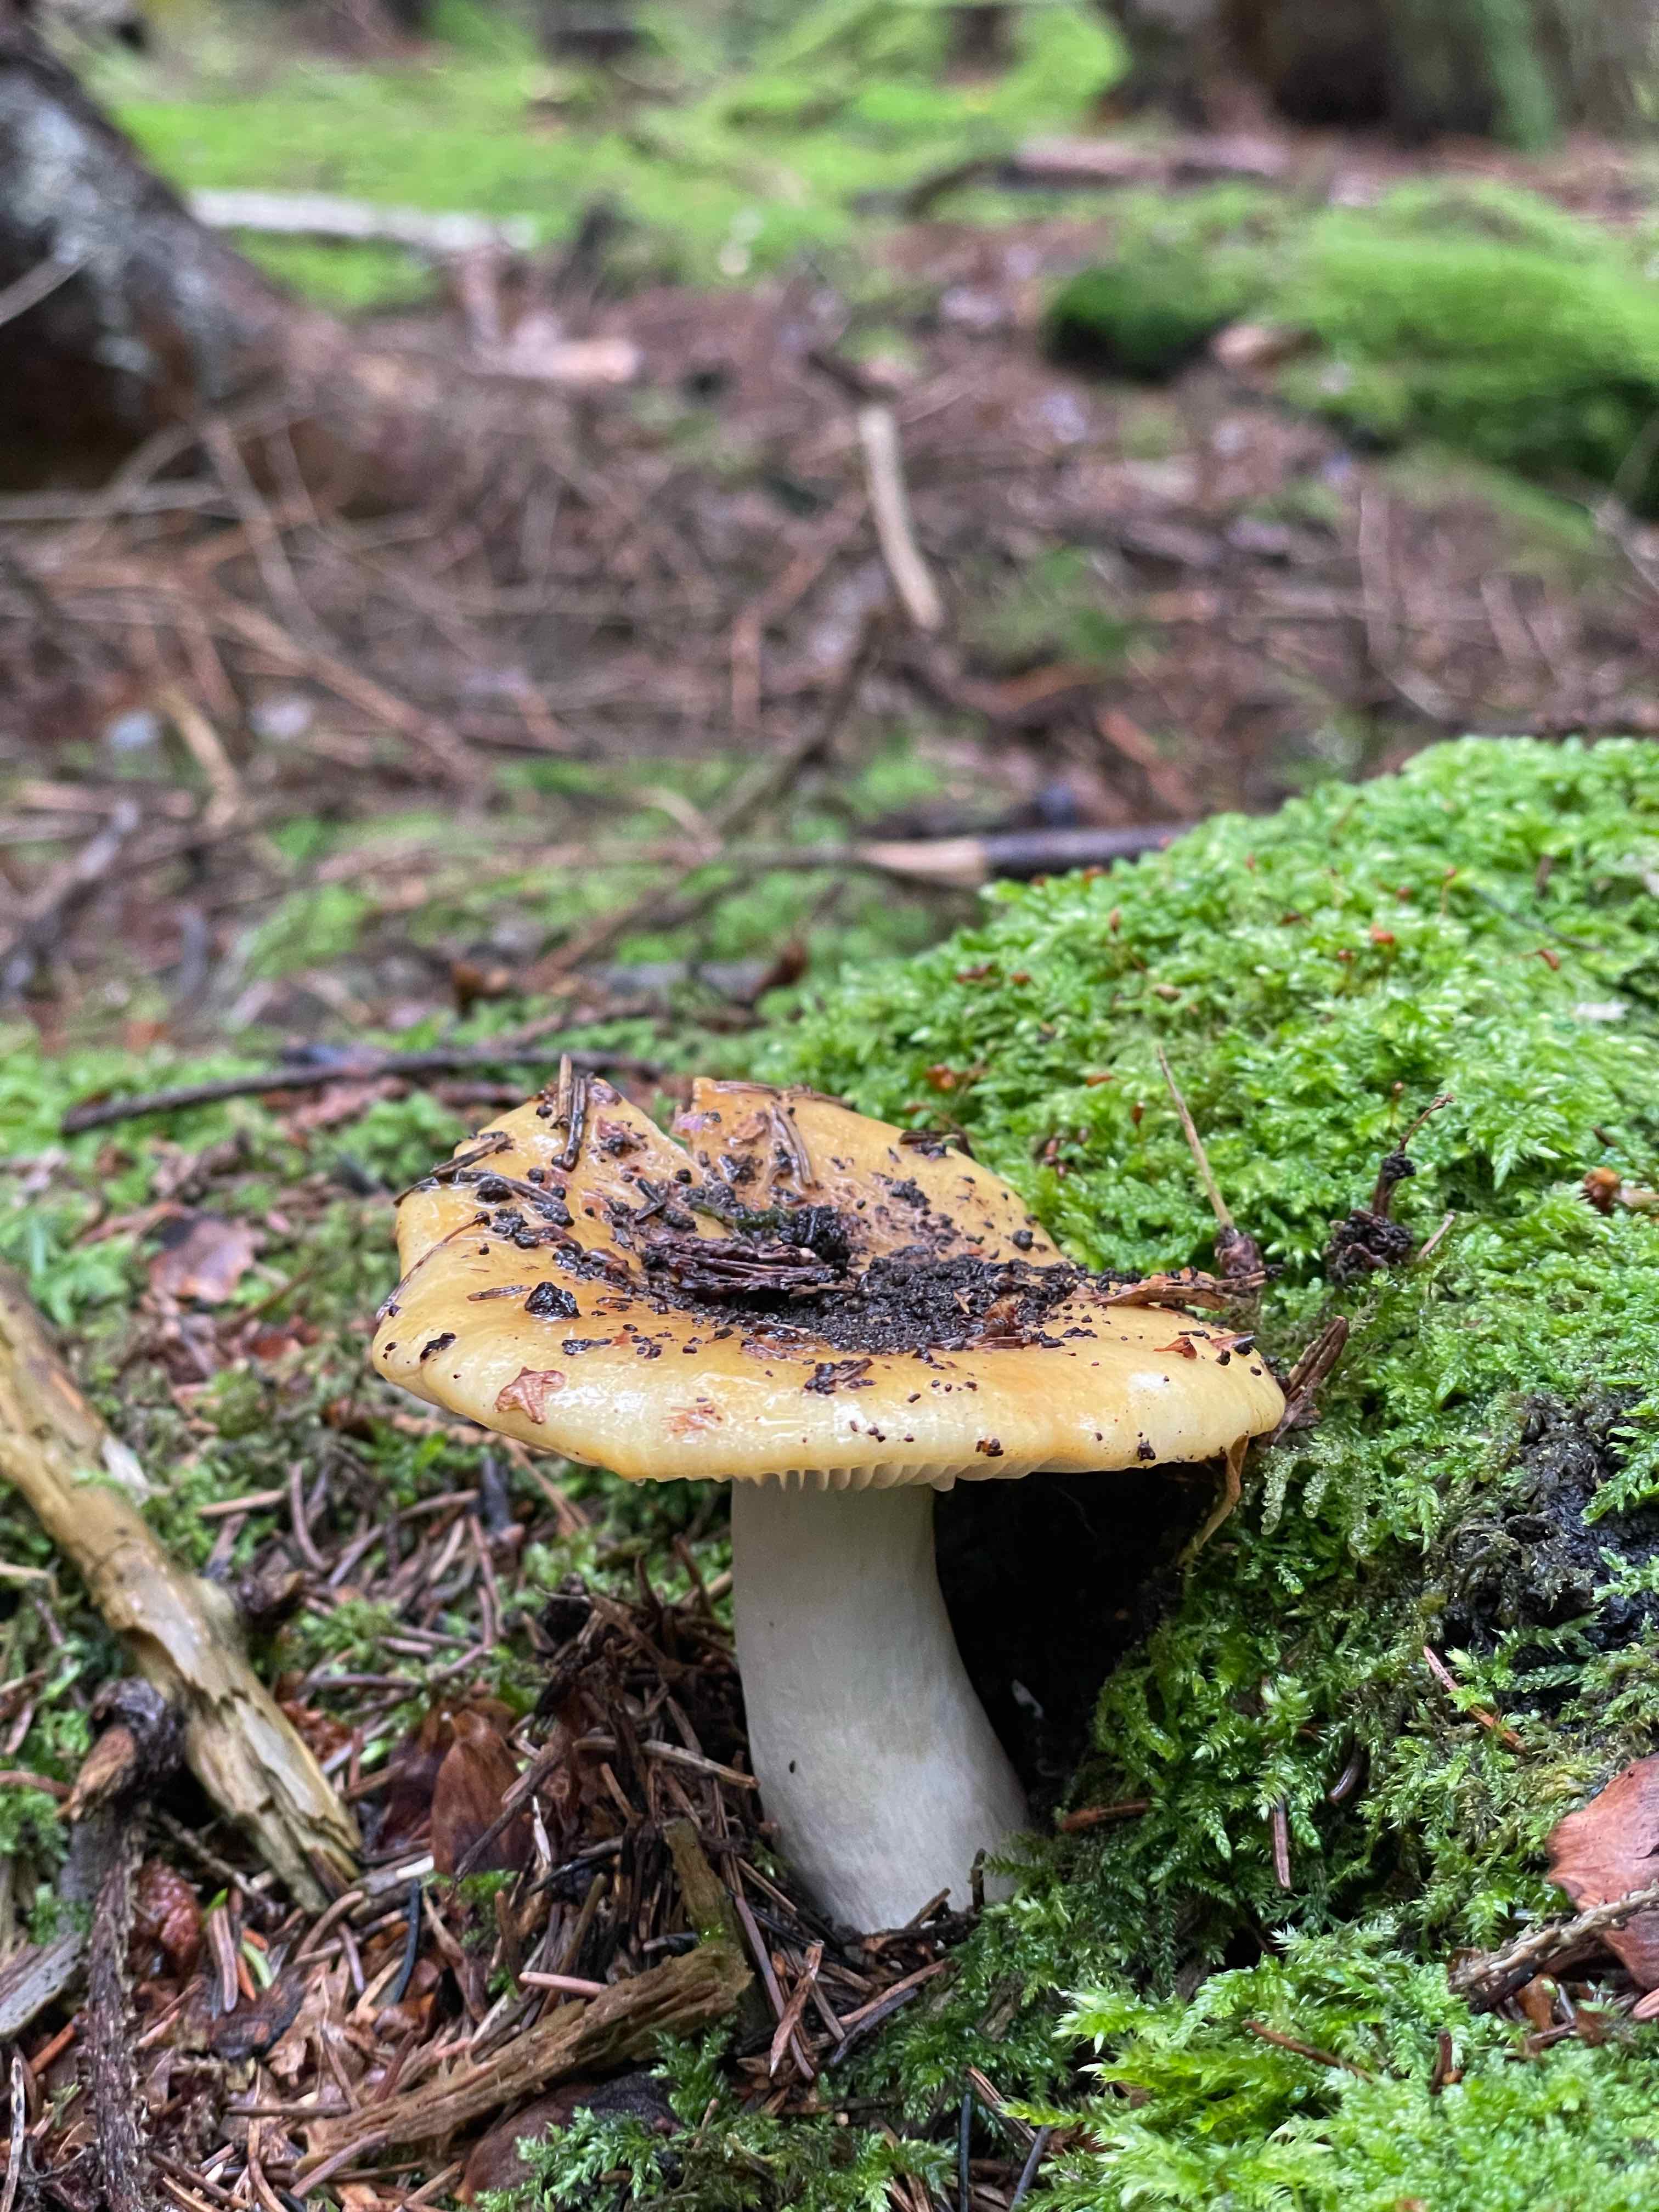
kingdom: Fungi
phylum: Basidiomycota
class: Agaricomycetes
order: Russulales
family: Russulaceae
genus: Russula
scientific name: Russula ochroleuca
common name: okkergul skørhat
